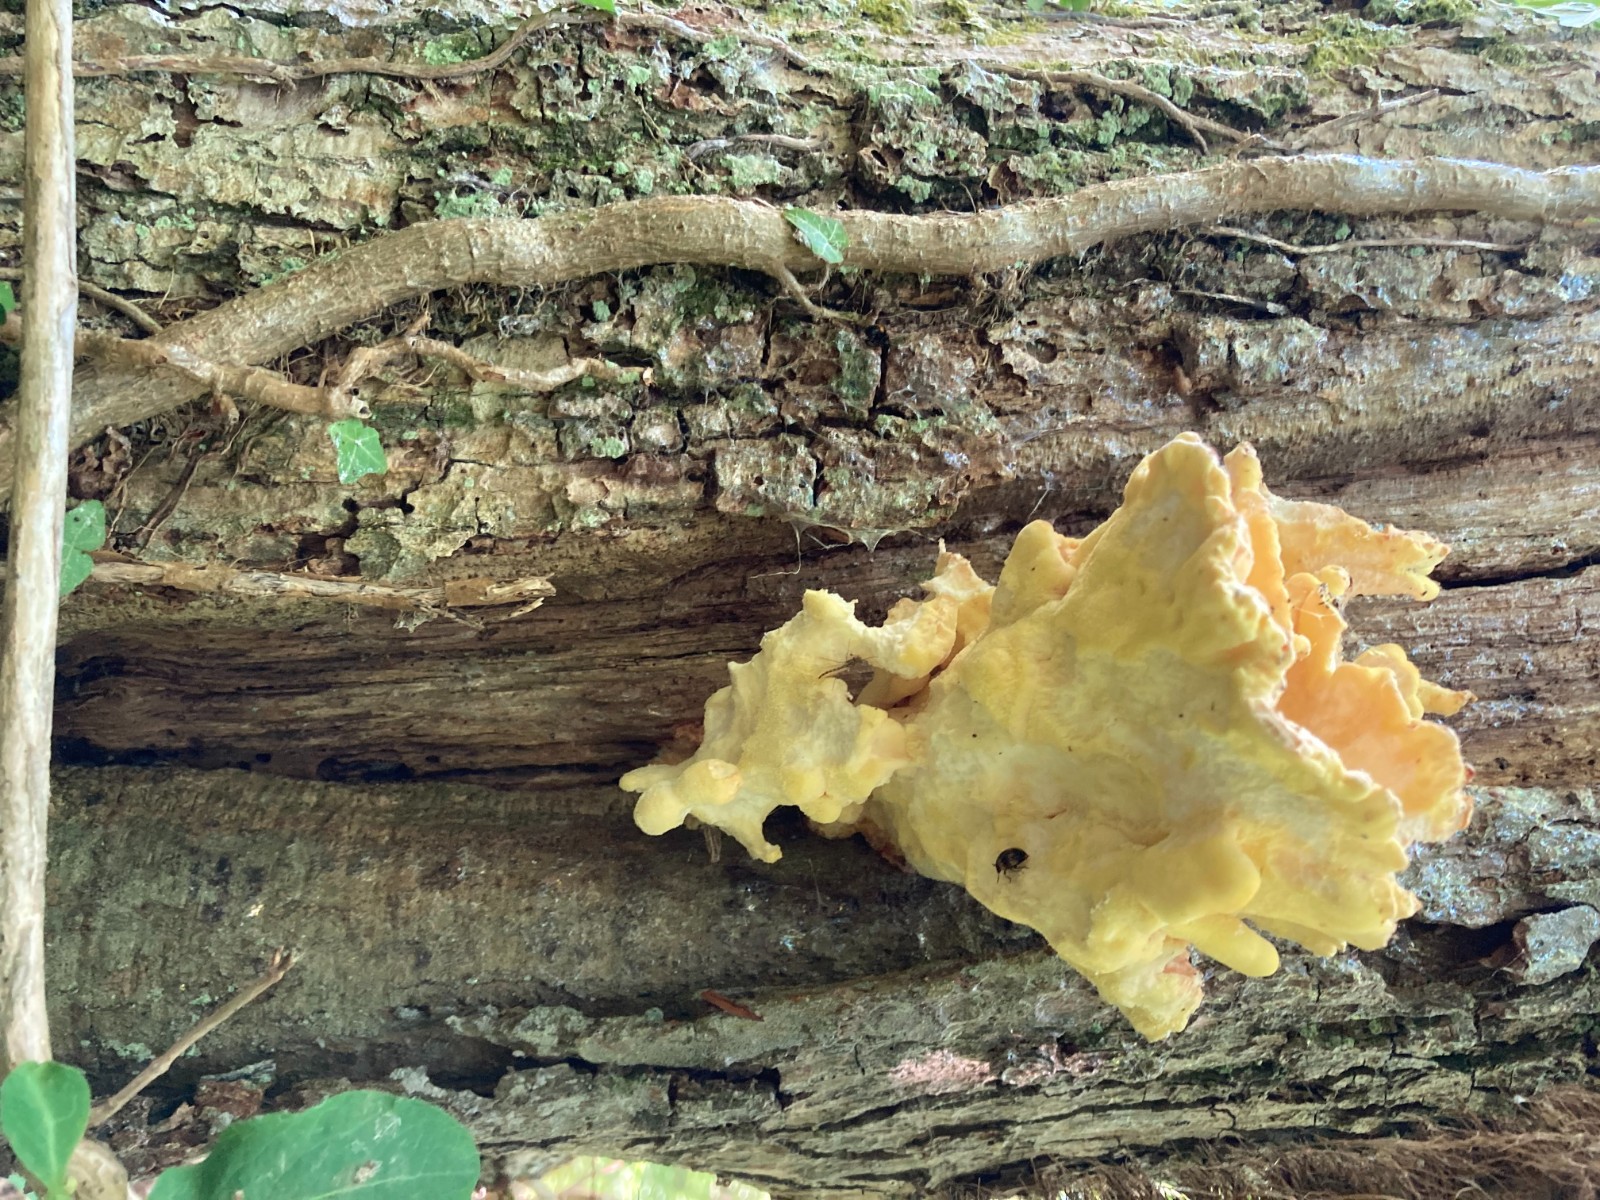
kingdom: Fungi
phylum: Basidiomycota
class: Agaricomycetes
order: Polyporales
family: Laetiporaceae
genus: Laetiporus
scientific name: Laetiporus sulphureus
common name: svovlporesvamp
